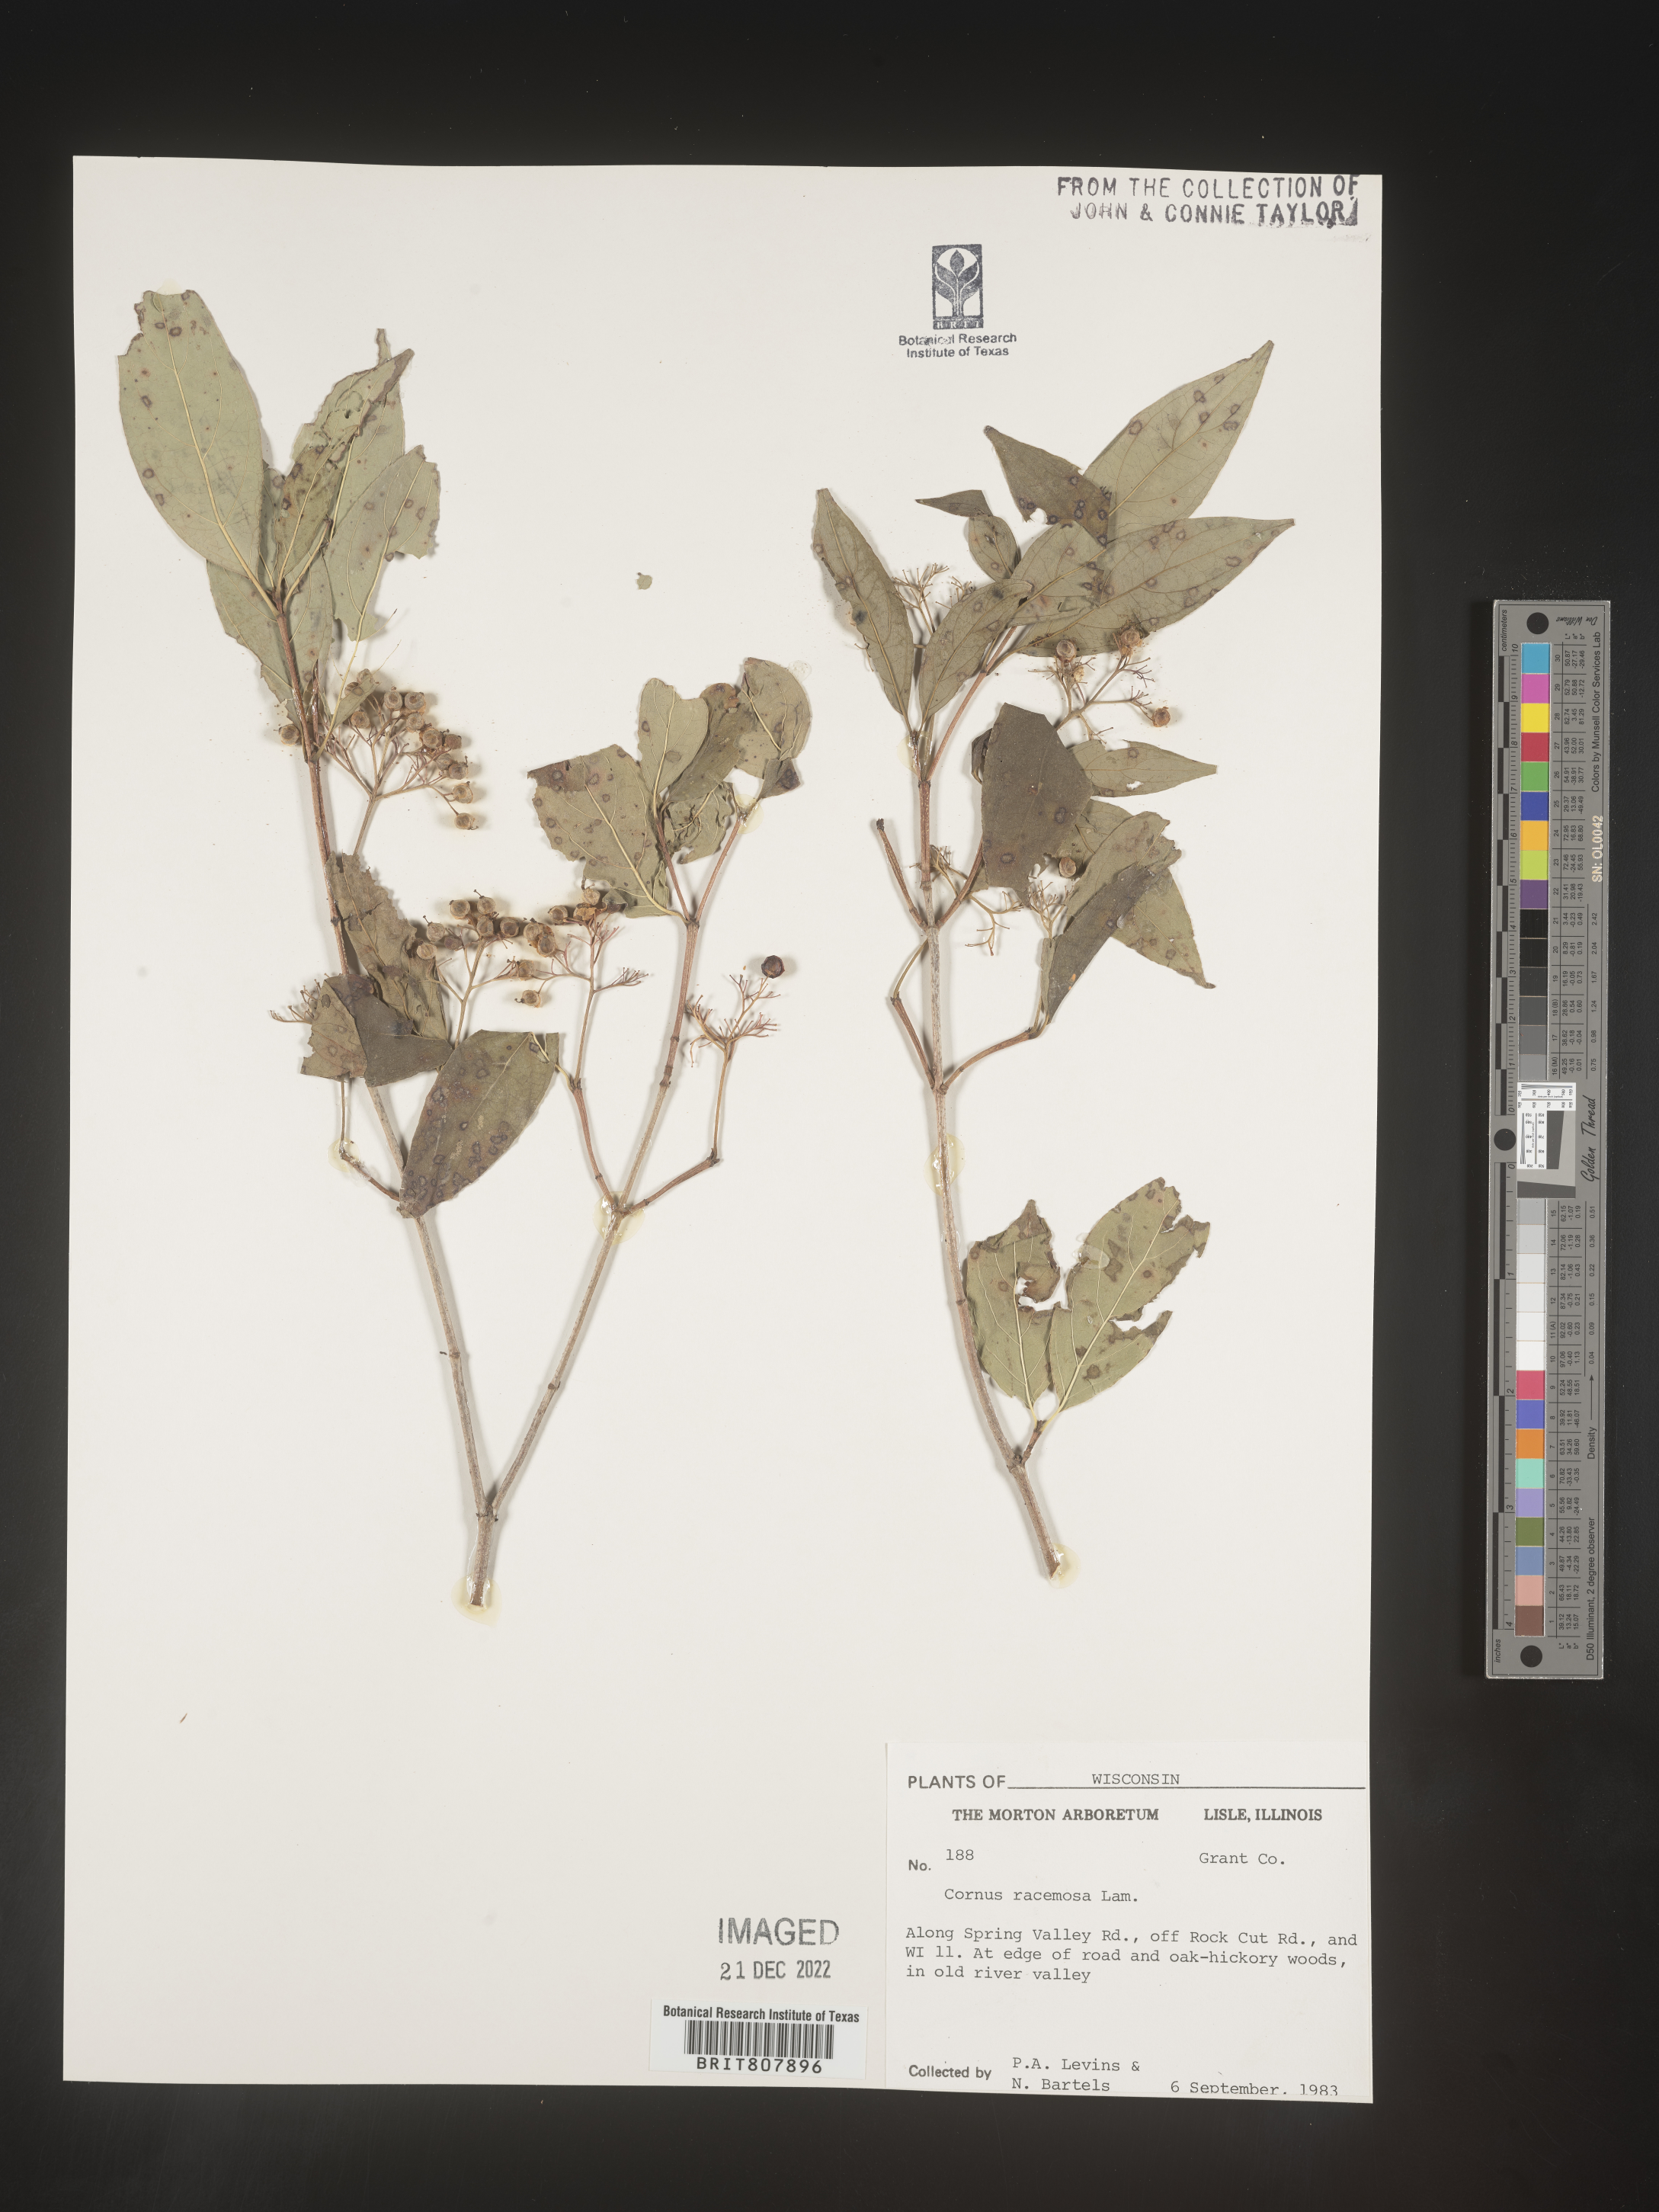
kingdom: Plantae
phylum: Tracheophyta
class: Magnoliopsida
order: Cornales
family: Cornaceae
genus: Cornus
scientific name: Cornus racemosa
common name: Panicled dogwood
